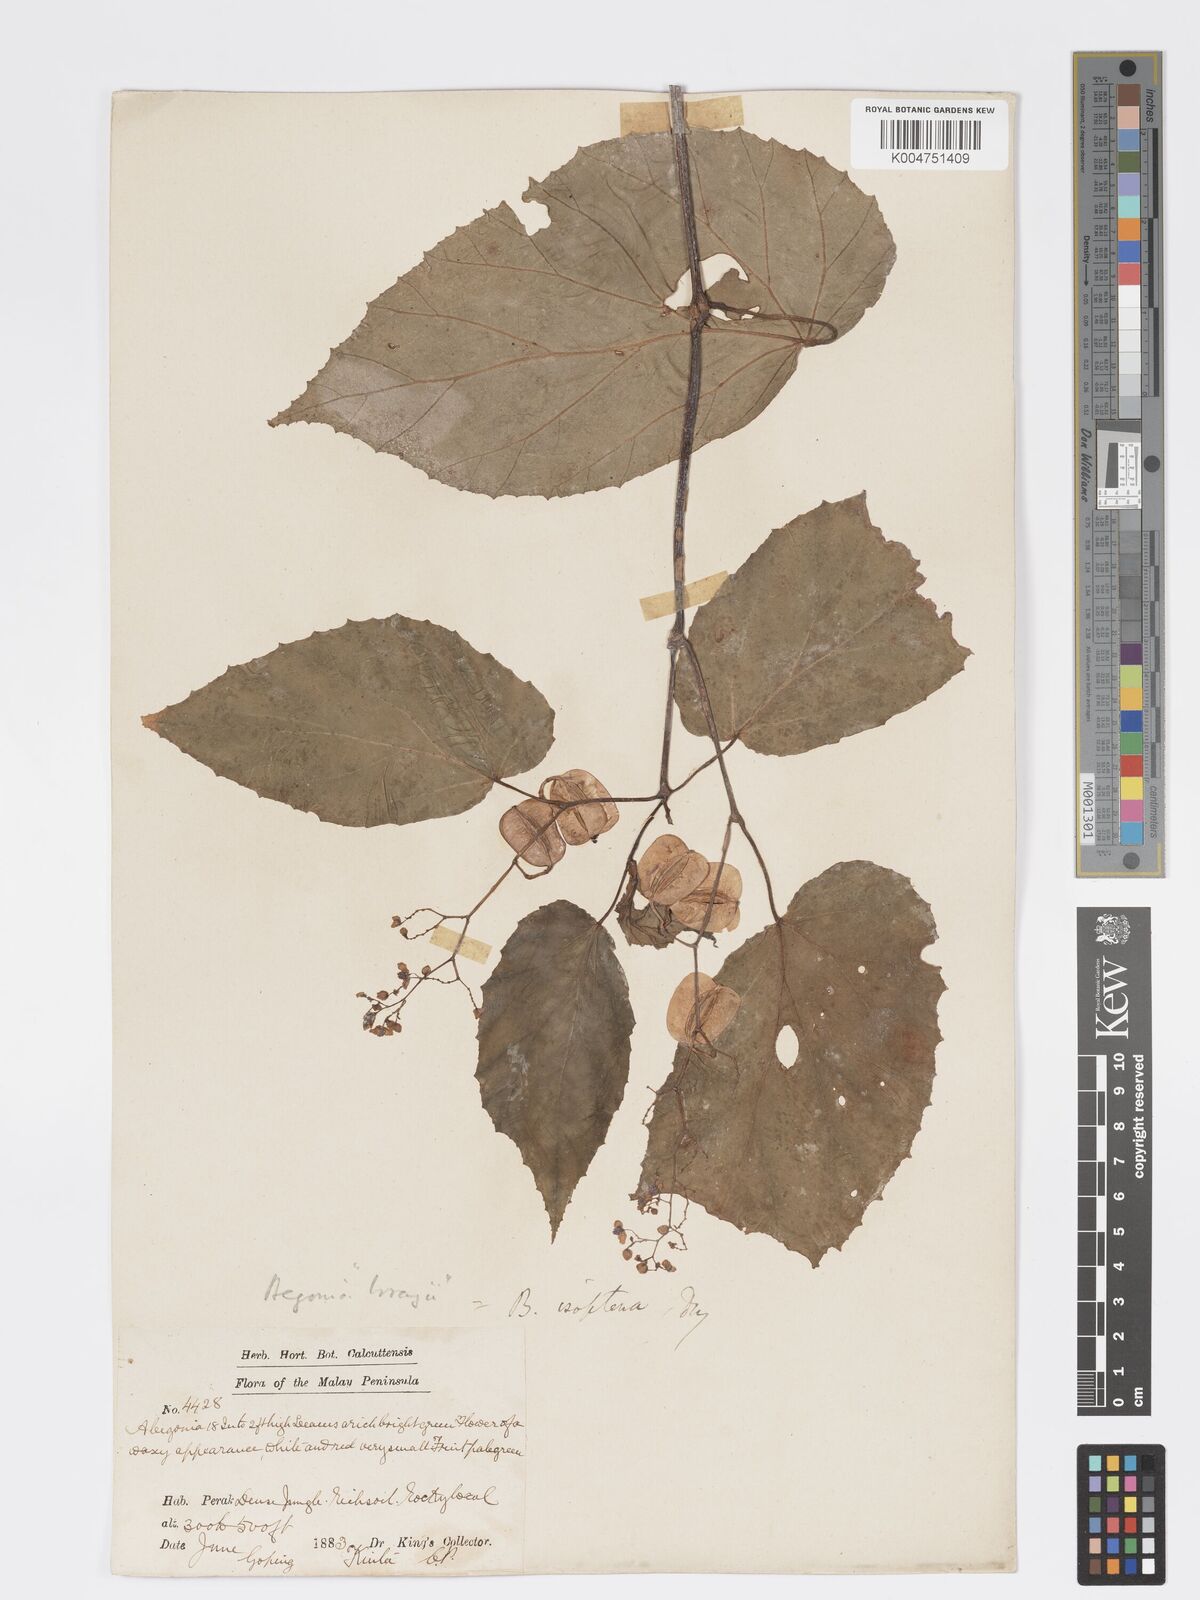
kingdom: Plantae
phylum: Tracheophyta
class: Magnoliopsida
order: Cucurbitales
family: Begoniaceae
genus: Begonia
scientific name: Begonia holttumii
